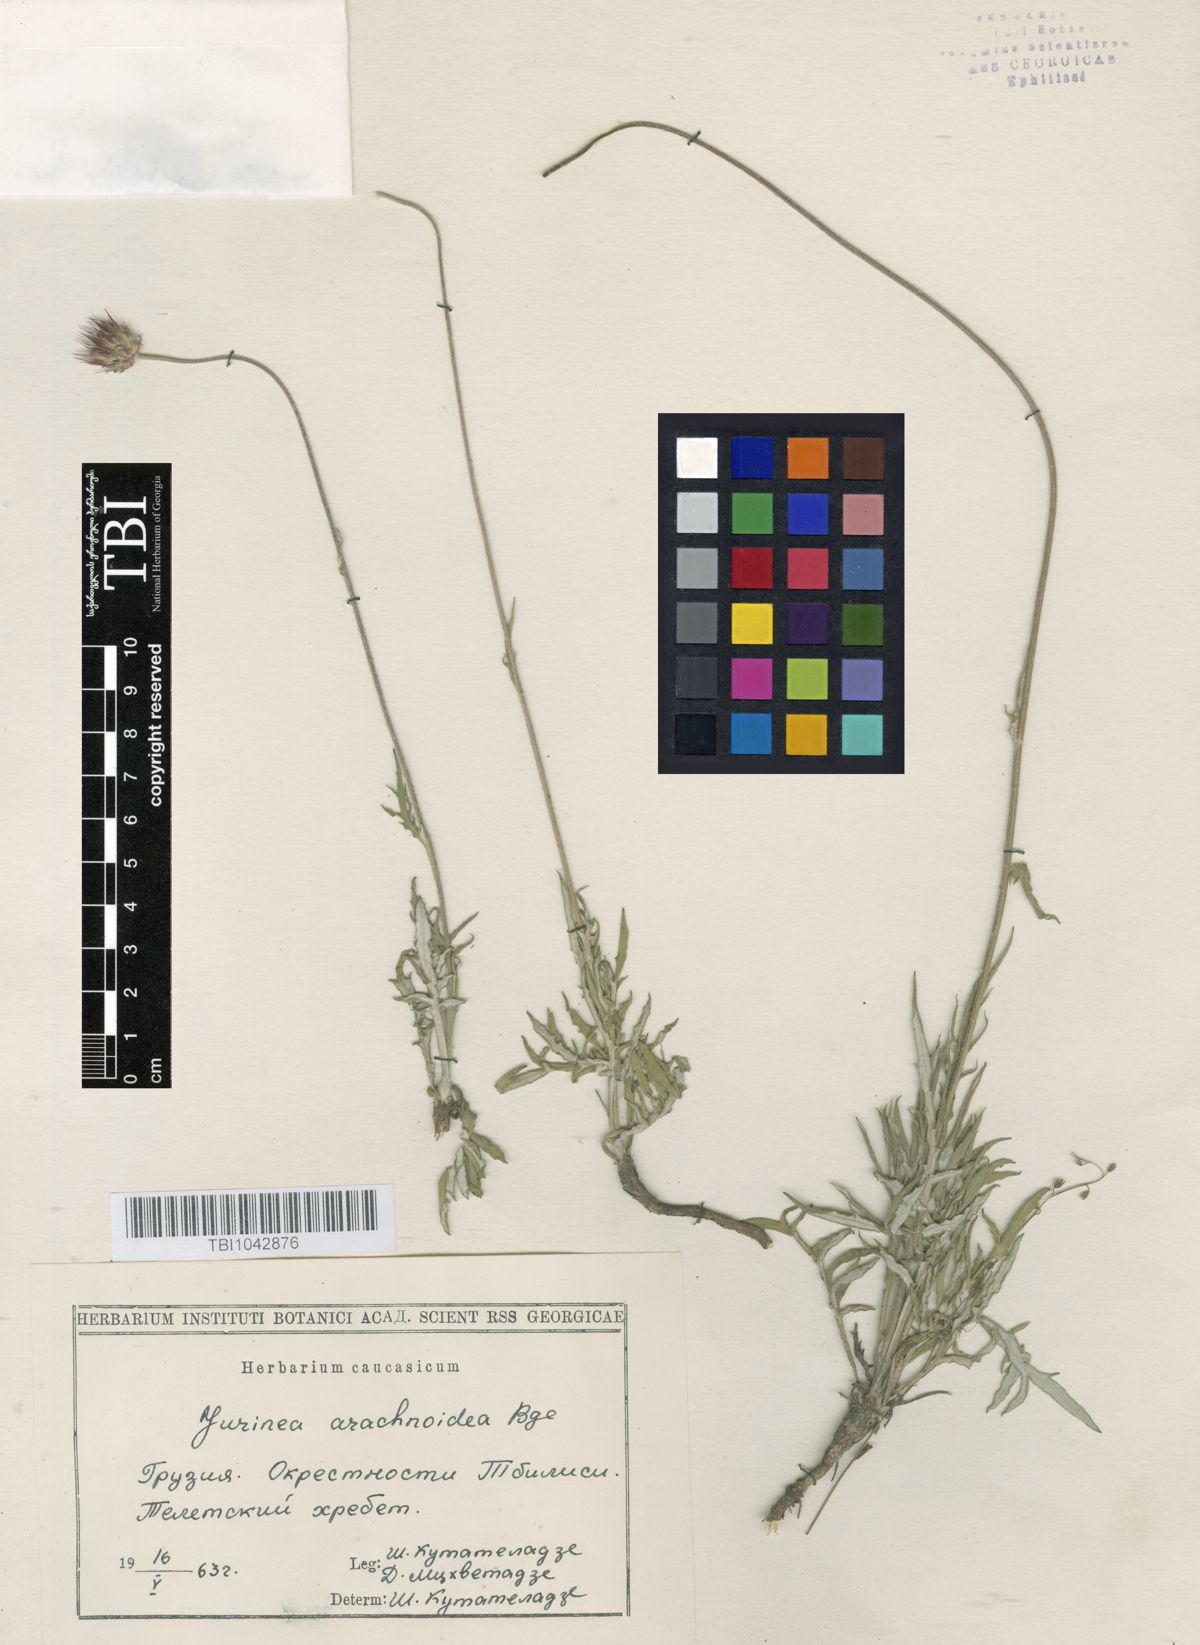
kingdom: Plantae
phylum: Tracheophyta
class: Magnoliopsida
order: Asterales
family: Asteraceae
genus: Jurinea
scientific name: Jurinea blanda
